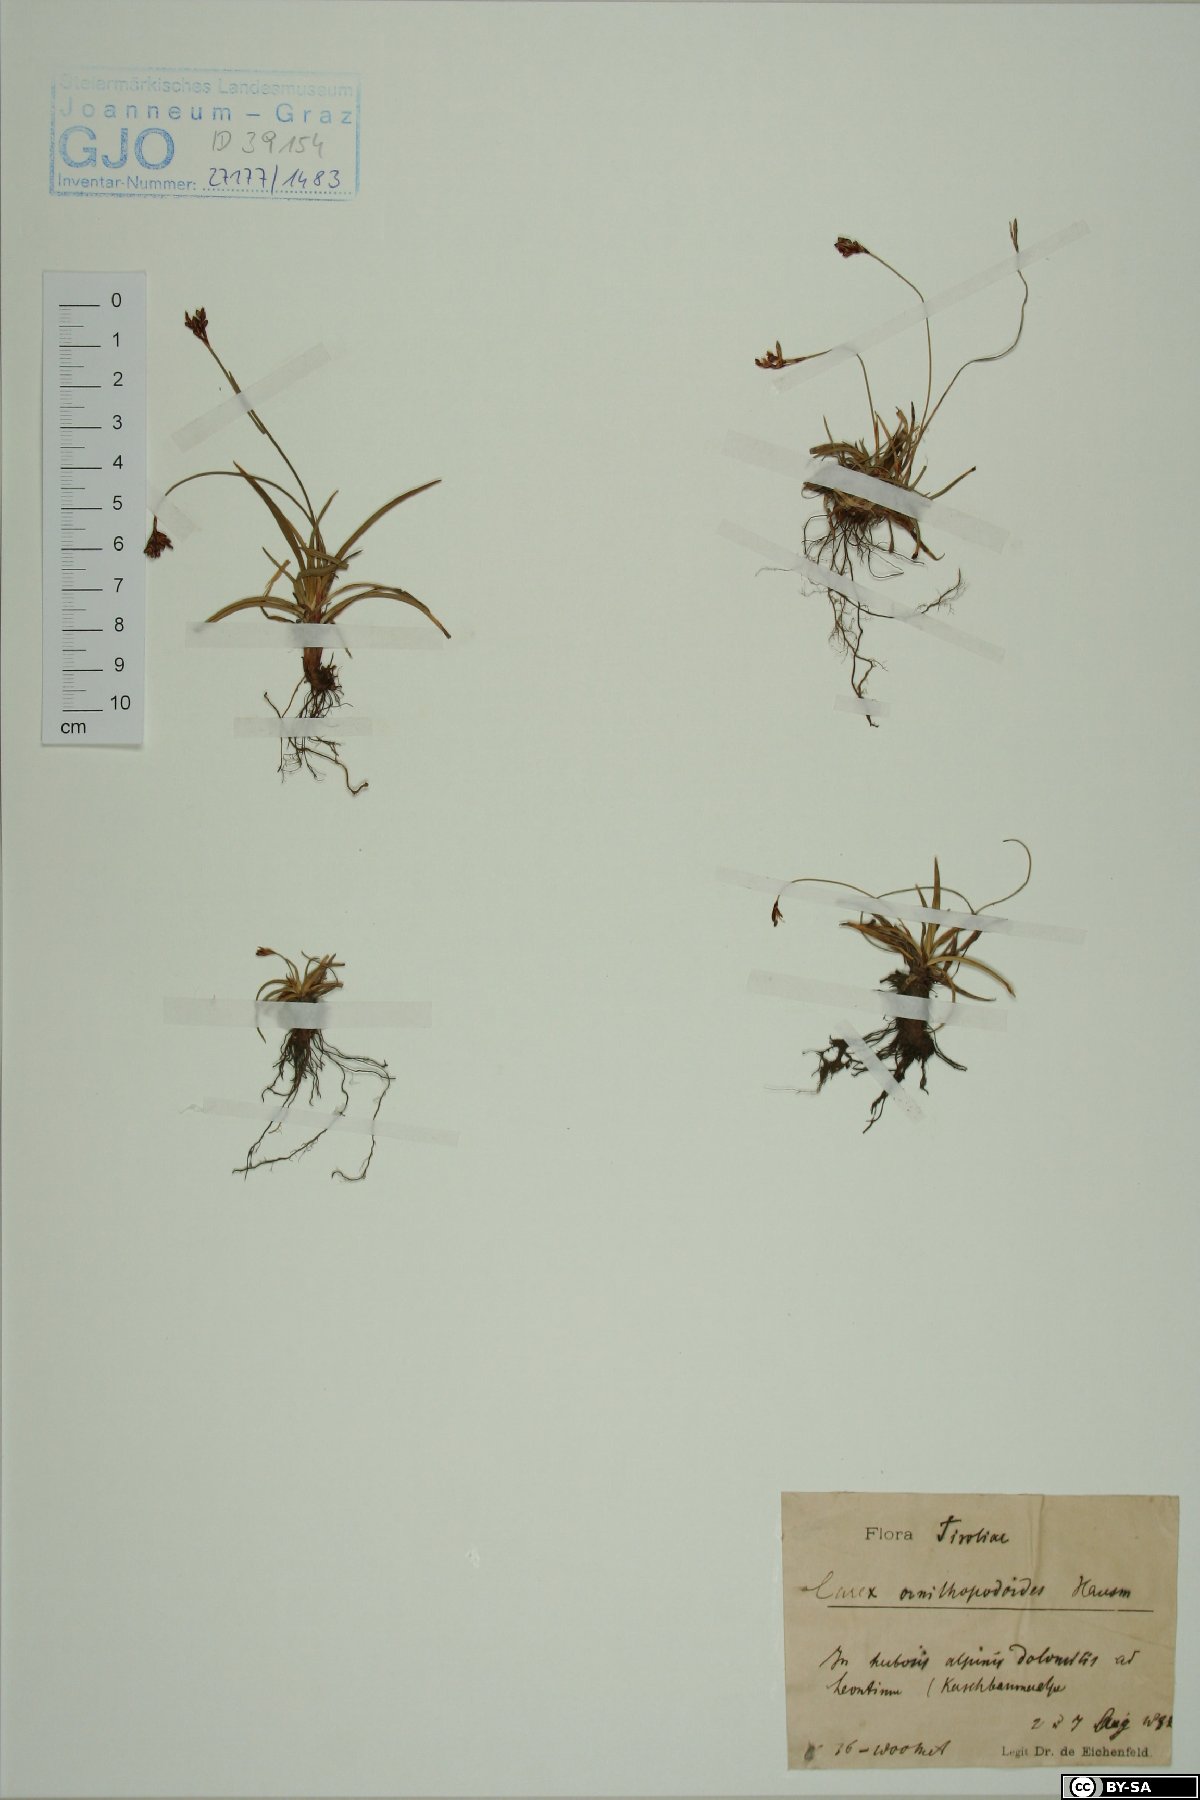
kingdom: Plantae
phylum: Tracheophyta
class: Liliopsida
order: Poales
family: Cyperaceae
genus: Carex
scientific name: Carex ornithopoda
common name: Bird's-foot sedge
